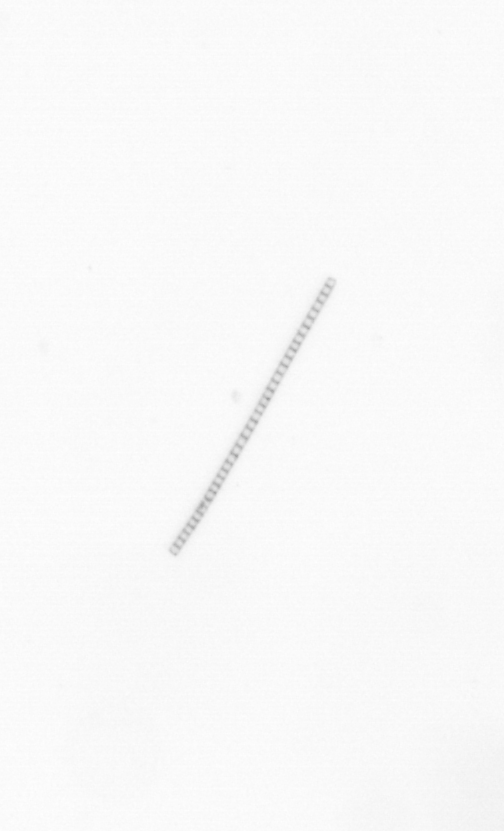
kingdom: Chromista
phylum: Ochrophyta
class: Bacillariophyceae
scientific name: Bacillariophyceae
